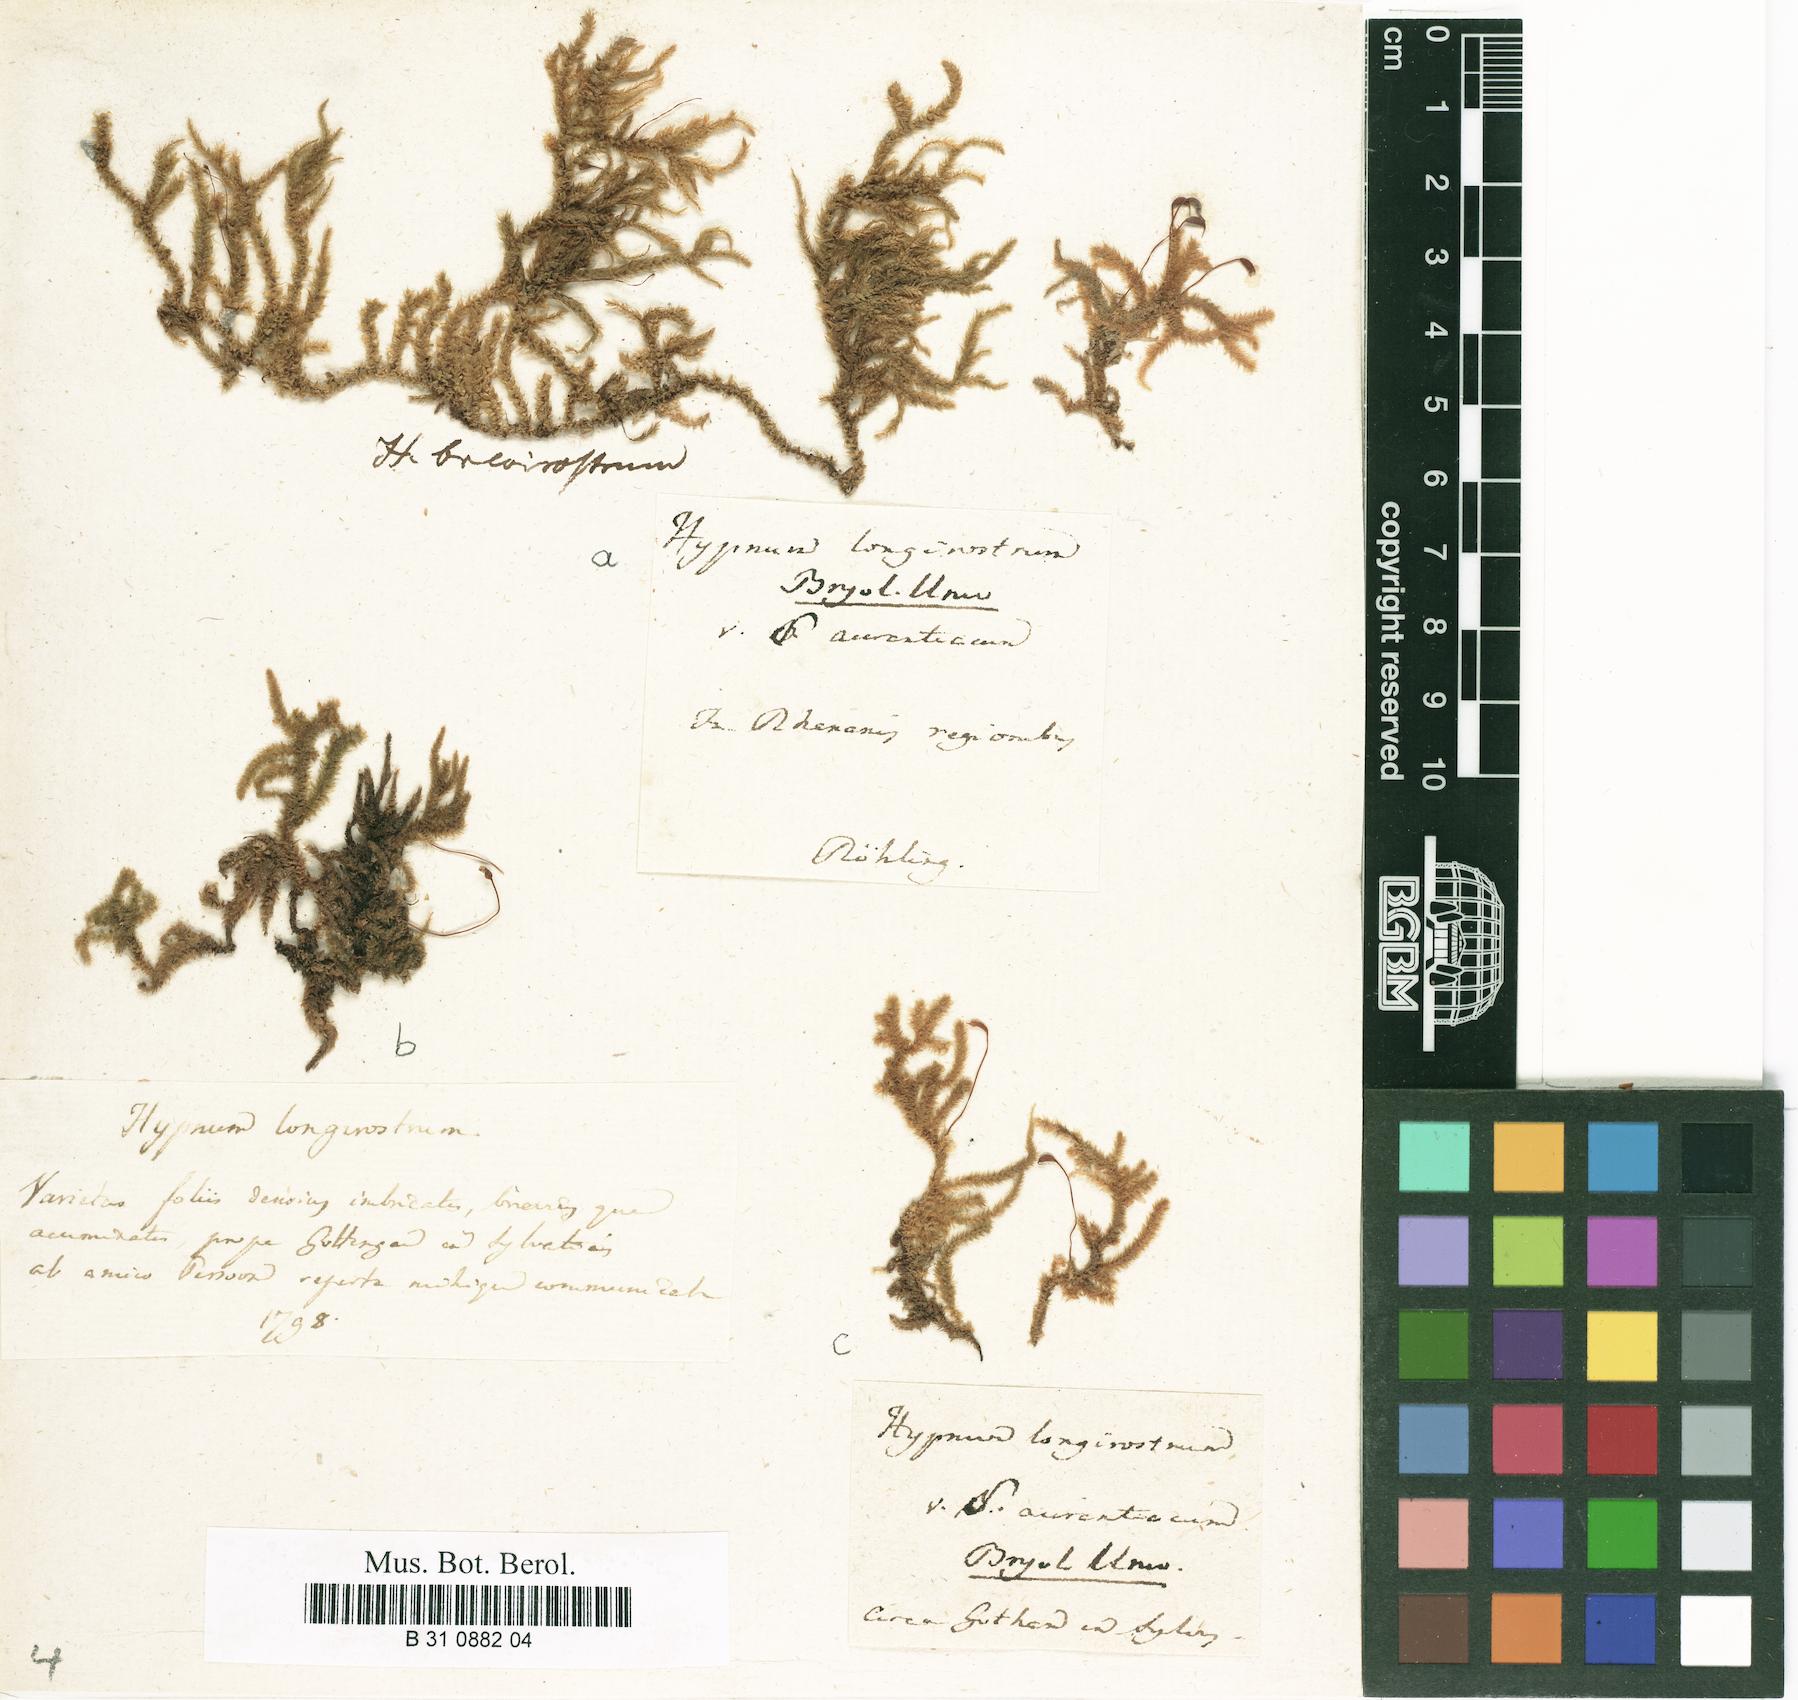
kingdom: Plantae
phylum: Bryophyta
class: Bryopsida
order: Hypnales
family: Brachytheciaceae
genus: Eurhynchium
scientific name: Eurhynchium striatum
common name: Common striated feather-moss
